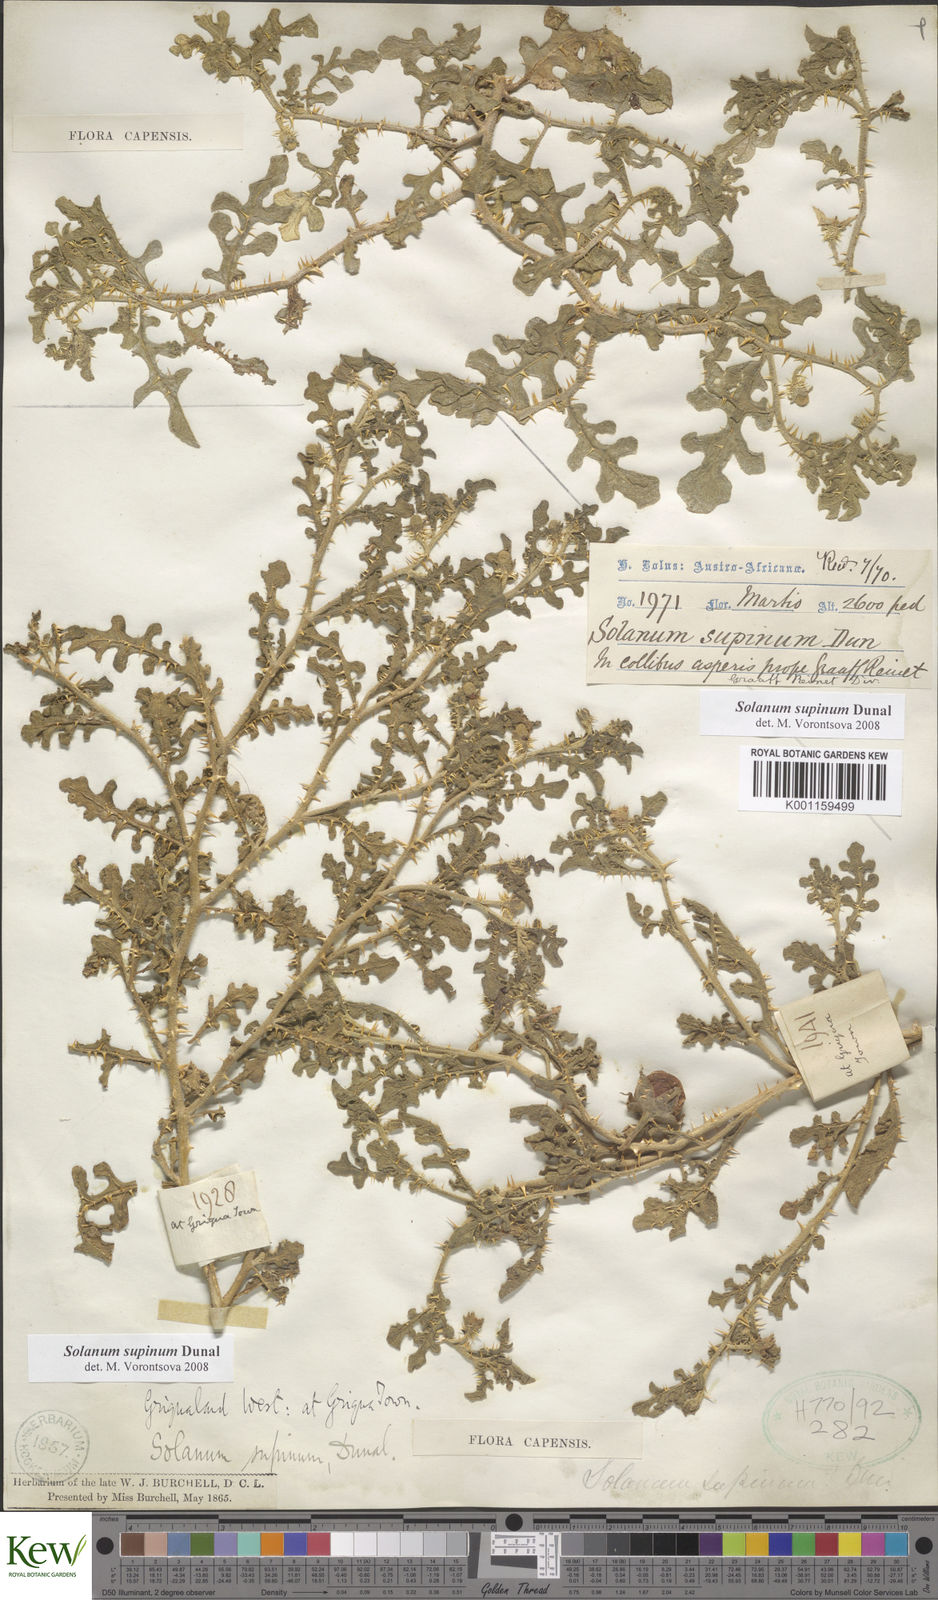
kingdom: Plantae
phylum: Tracheophyta
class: Magnoliopsida
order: Solanales
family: Solanaceae
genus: Solanum
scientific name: Solanum supinum
